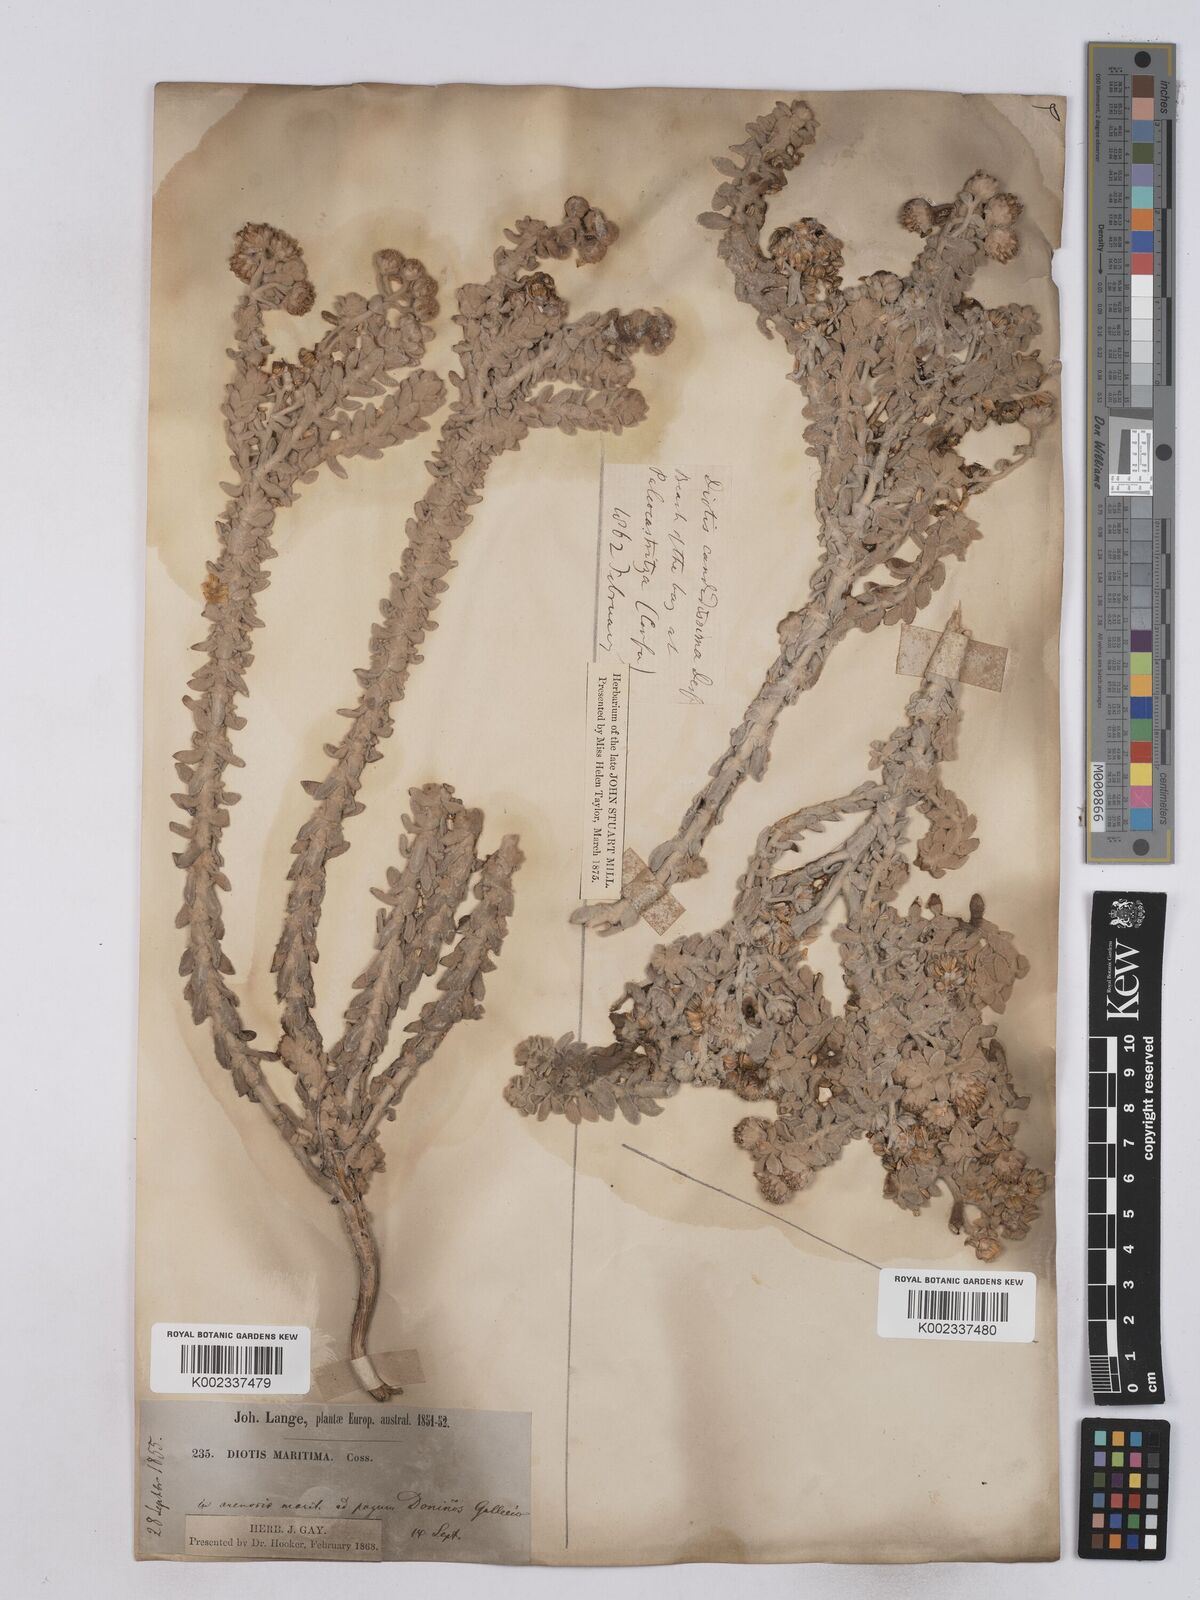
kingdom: Plantae
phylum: Tracheophyta
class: Magnoliopsida
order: Asterales
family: Asteraceae
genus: Achillea
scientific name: Achillea maritima
